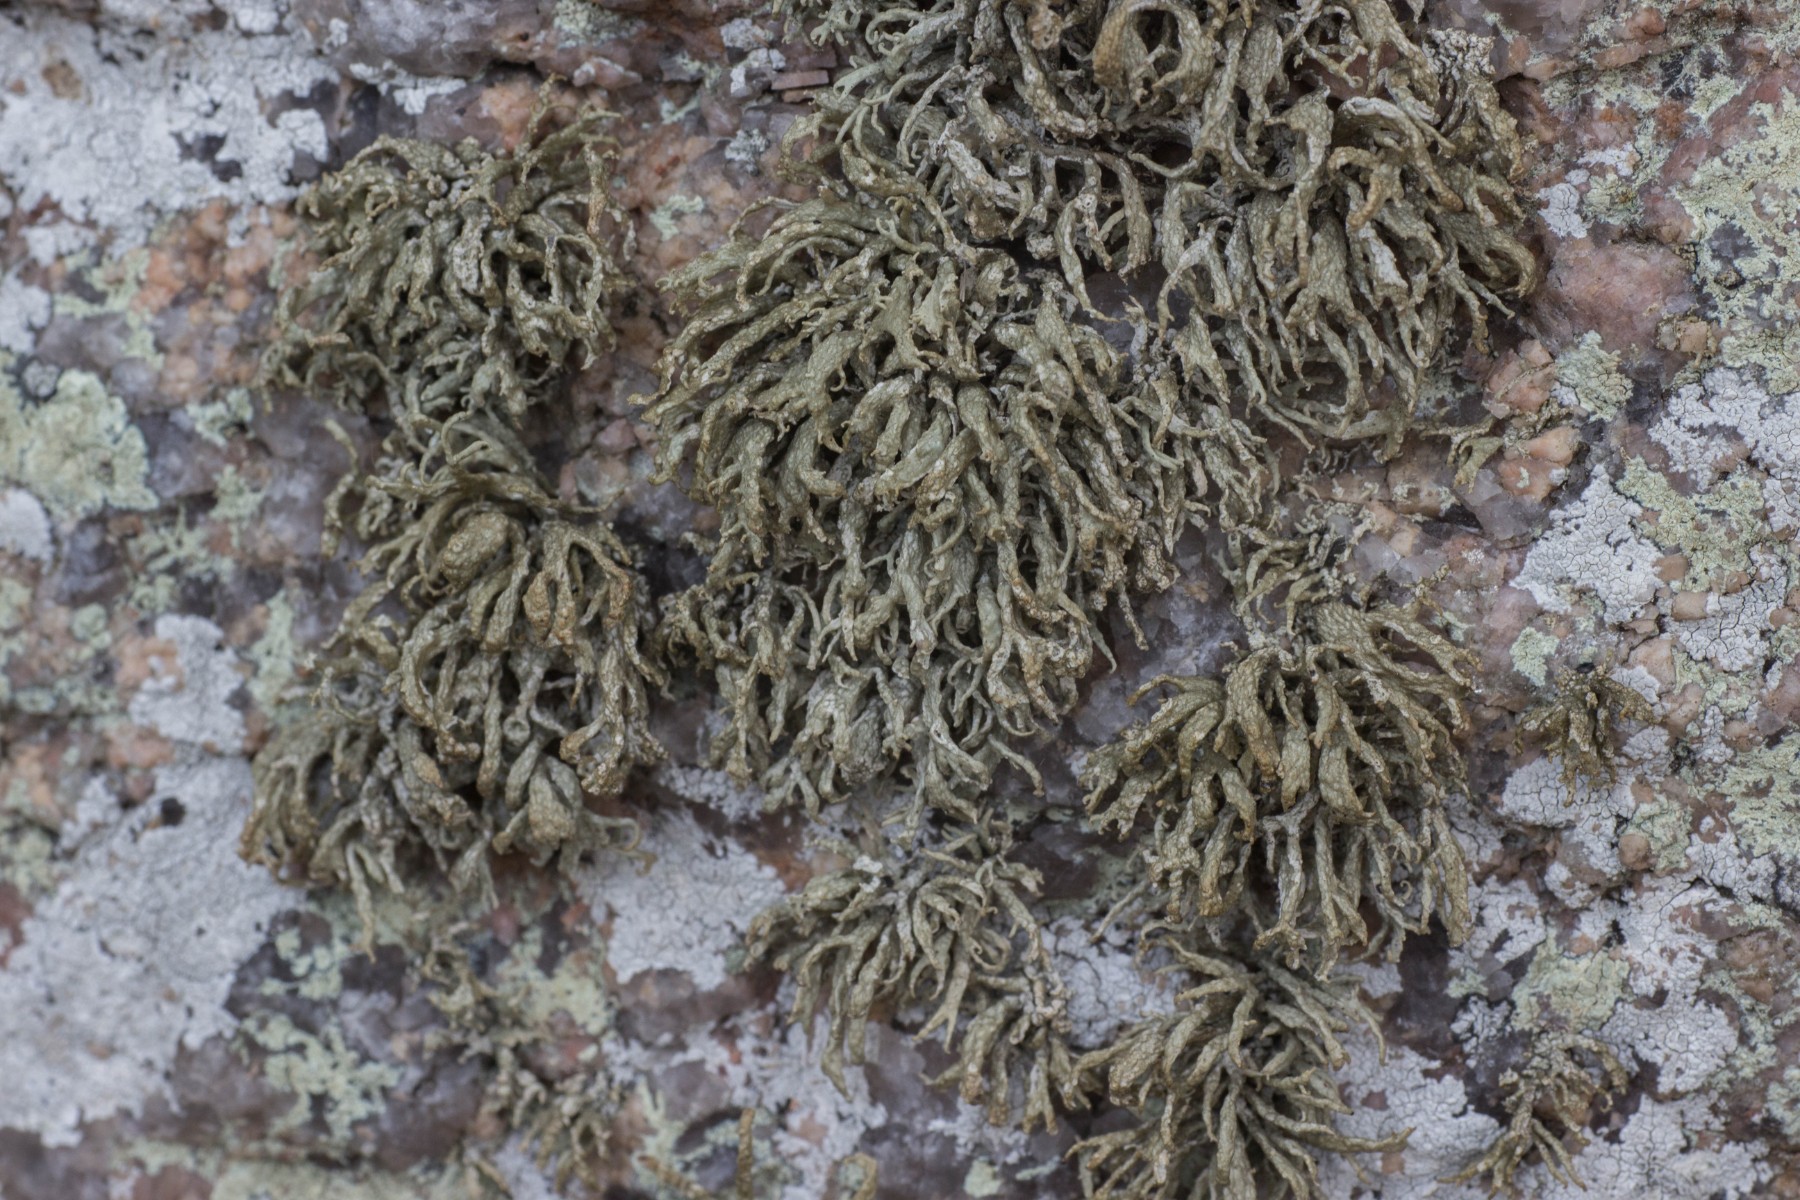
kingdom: Fungi
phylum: Ascomycota
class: Lecanoromycetes
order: Lecanorales
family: Ramalinaceae
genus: Ramalina
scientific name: Ramalina siliquosa
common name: klippe-grenlav
